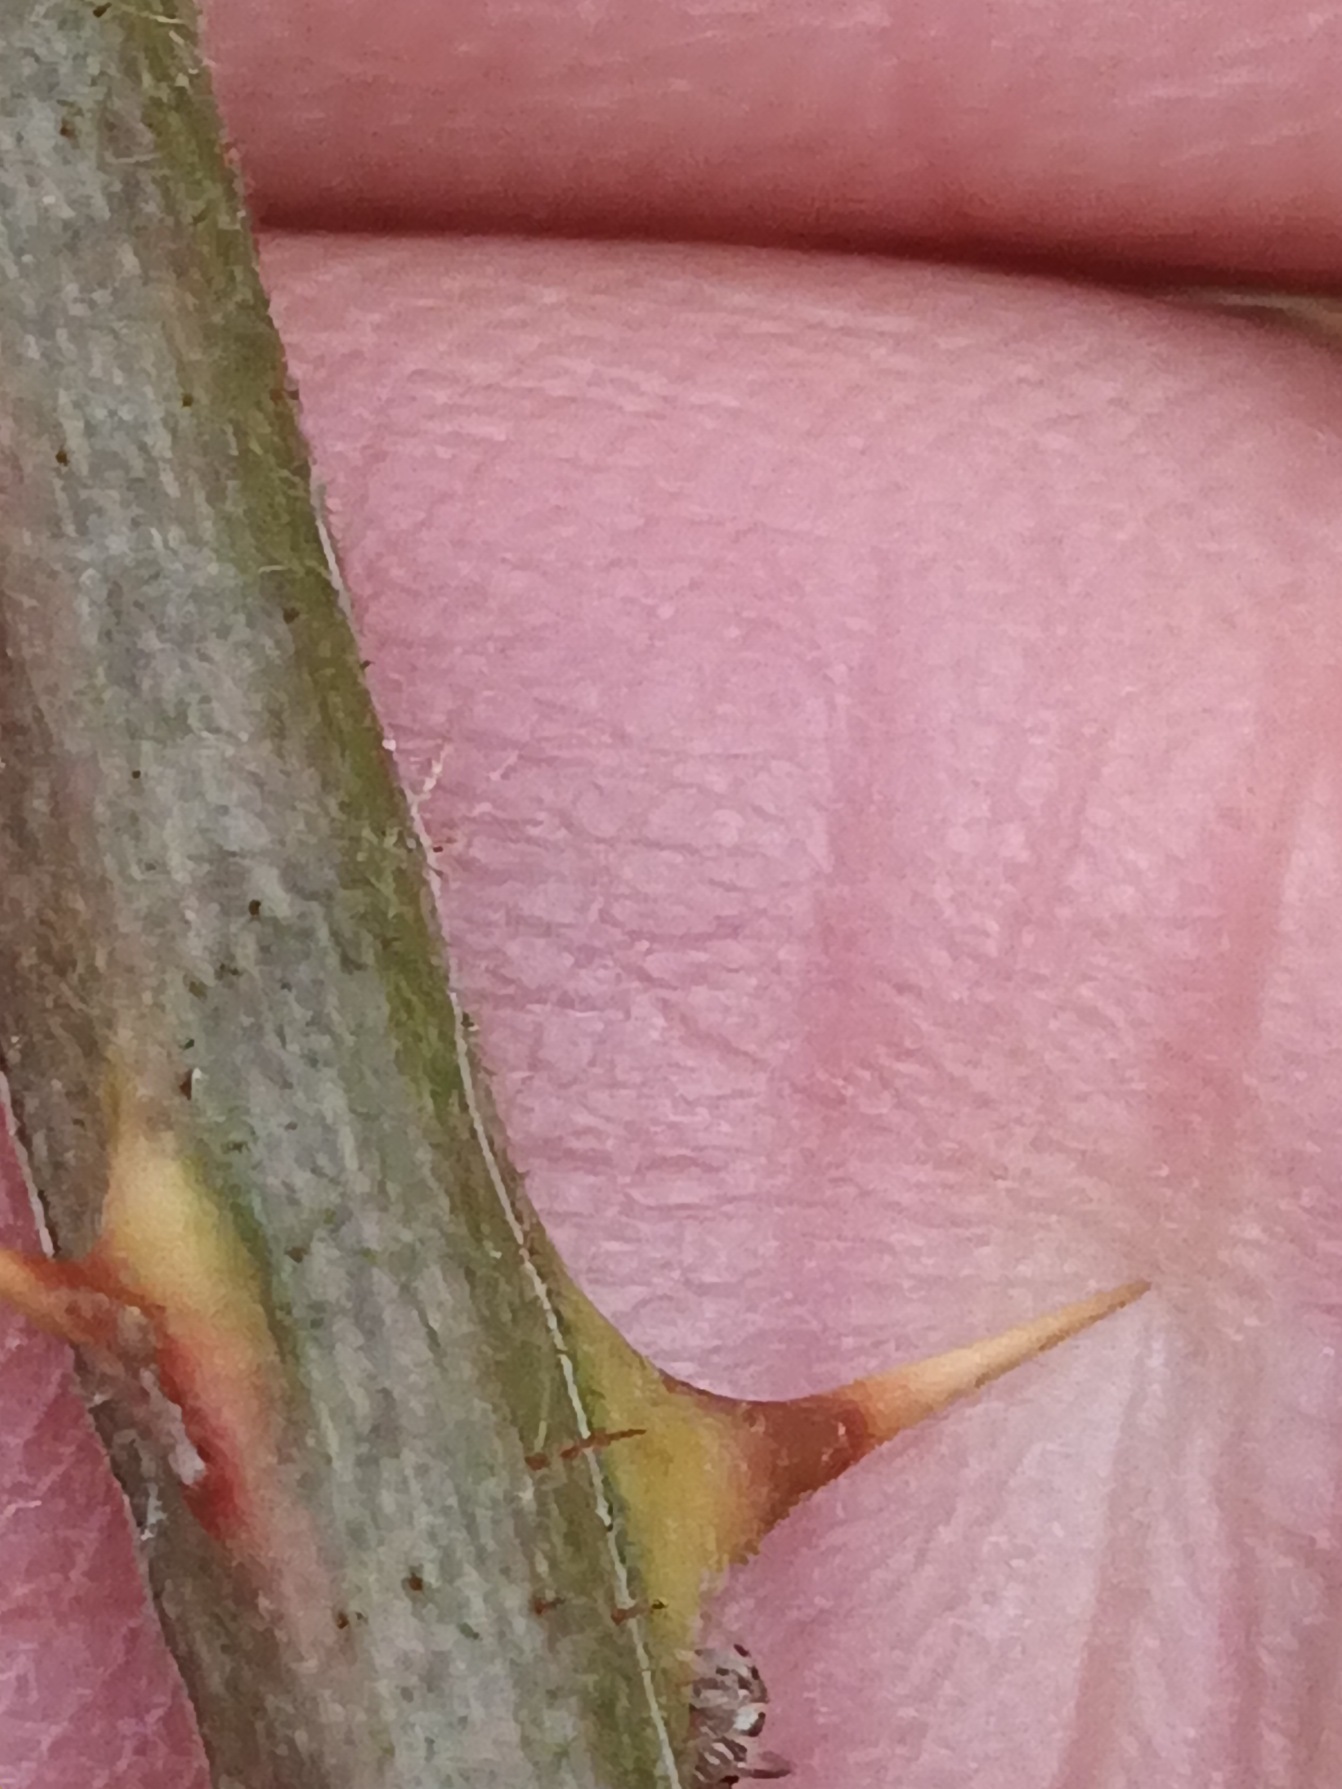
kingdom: Plantae
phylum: Tracheophyta
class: Magnoliopsida
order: Rosales
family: Rosaceae
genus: Rubus
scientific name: Rubus radula
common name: Rasperu brombær
